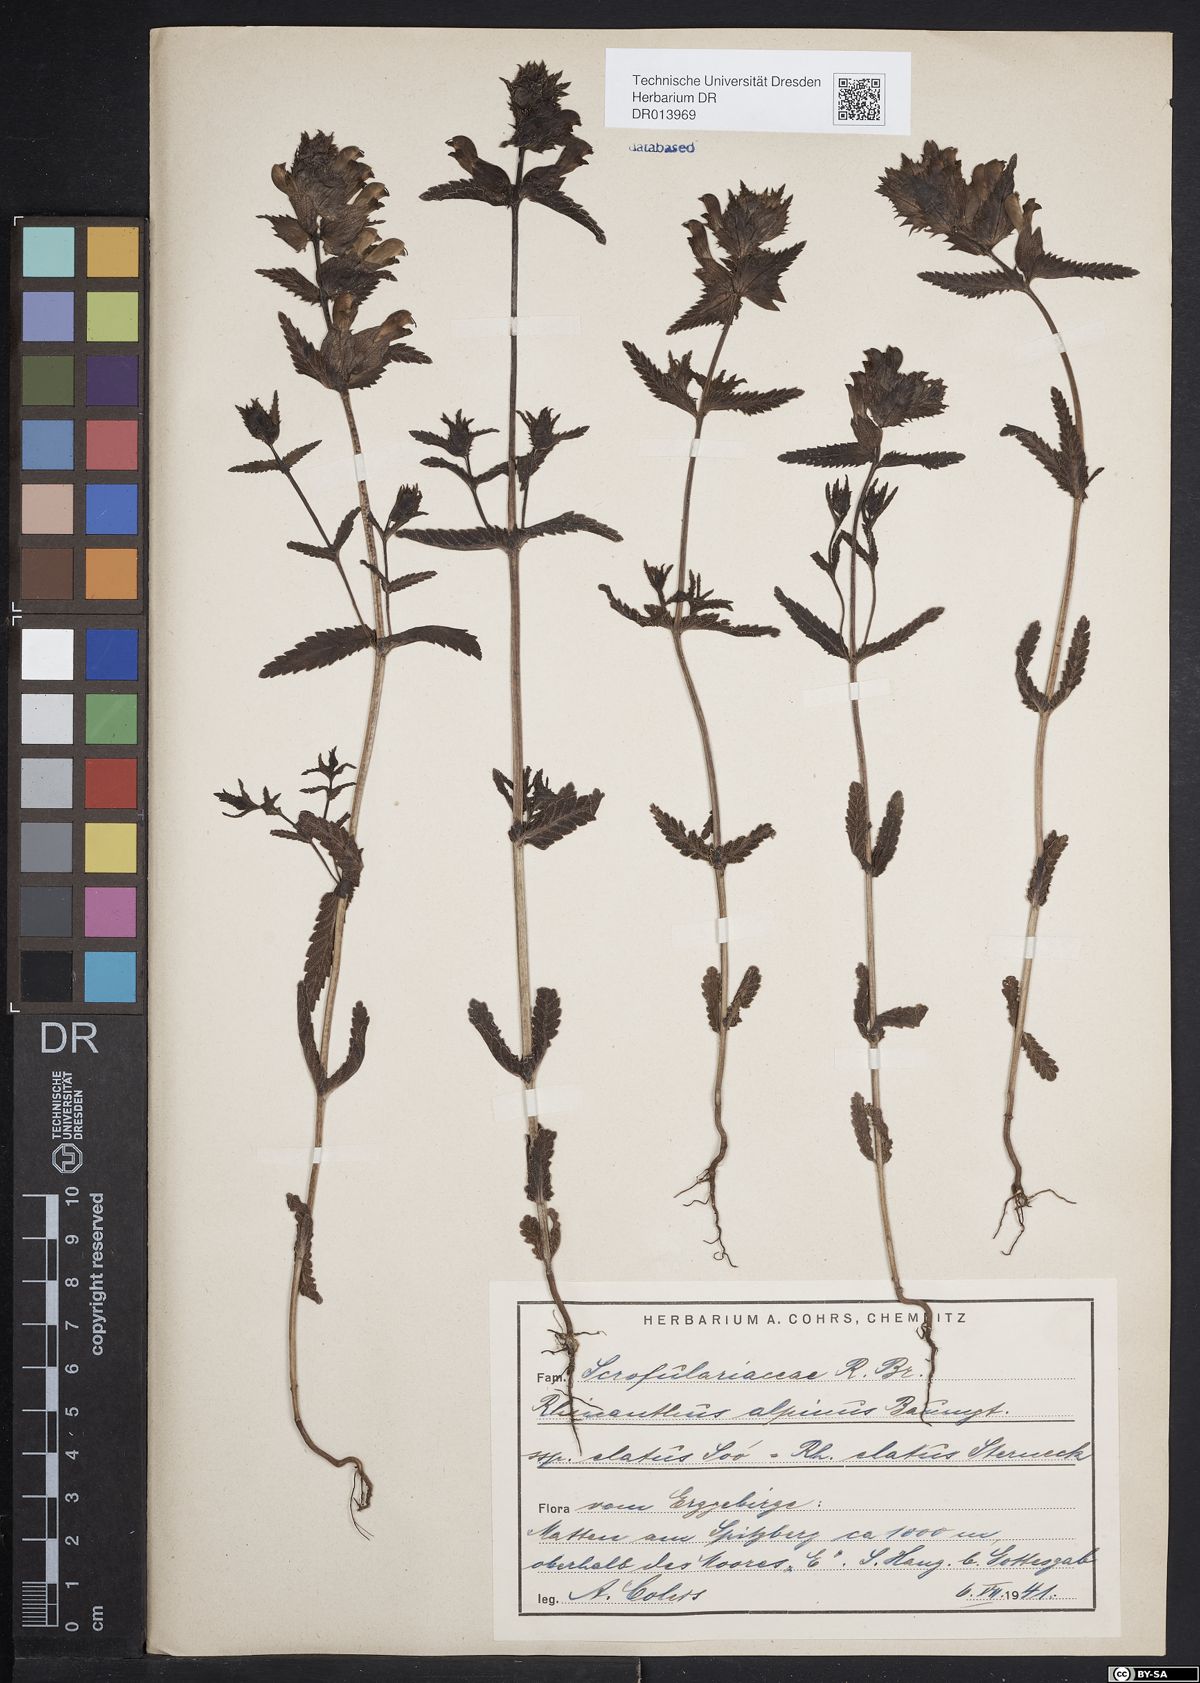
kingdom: Plantae
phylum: Tracheophyta
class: Magnoliopsida
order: Lamiales
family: Orobanchaceae
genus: Rhinanthus
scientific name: Rhinanthus riphaeus
